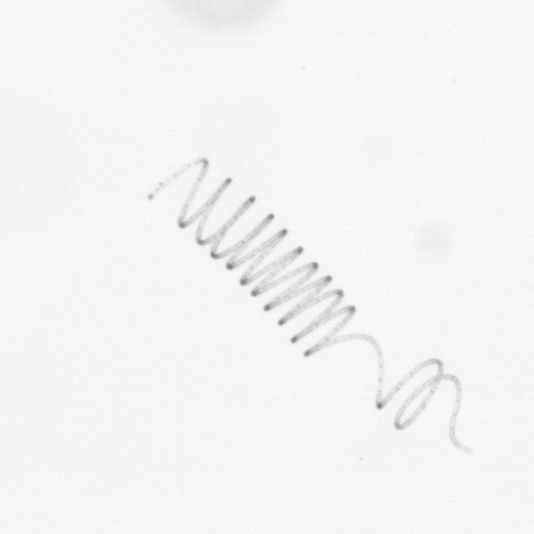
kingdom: Chromista
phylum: Ochrophyta
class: Bacillariophyceae
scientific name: Bacillariophyceae
